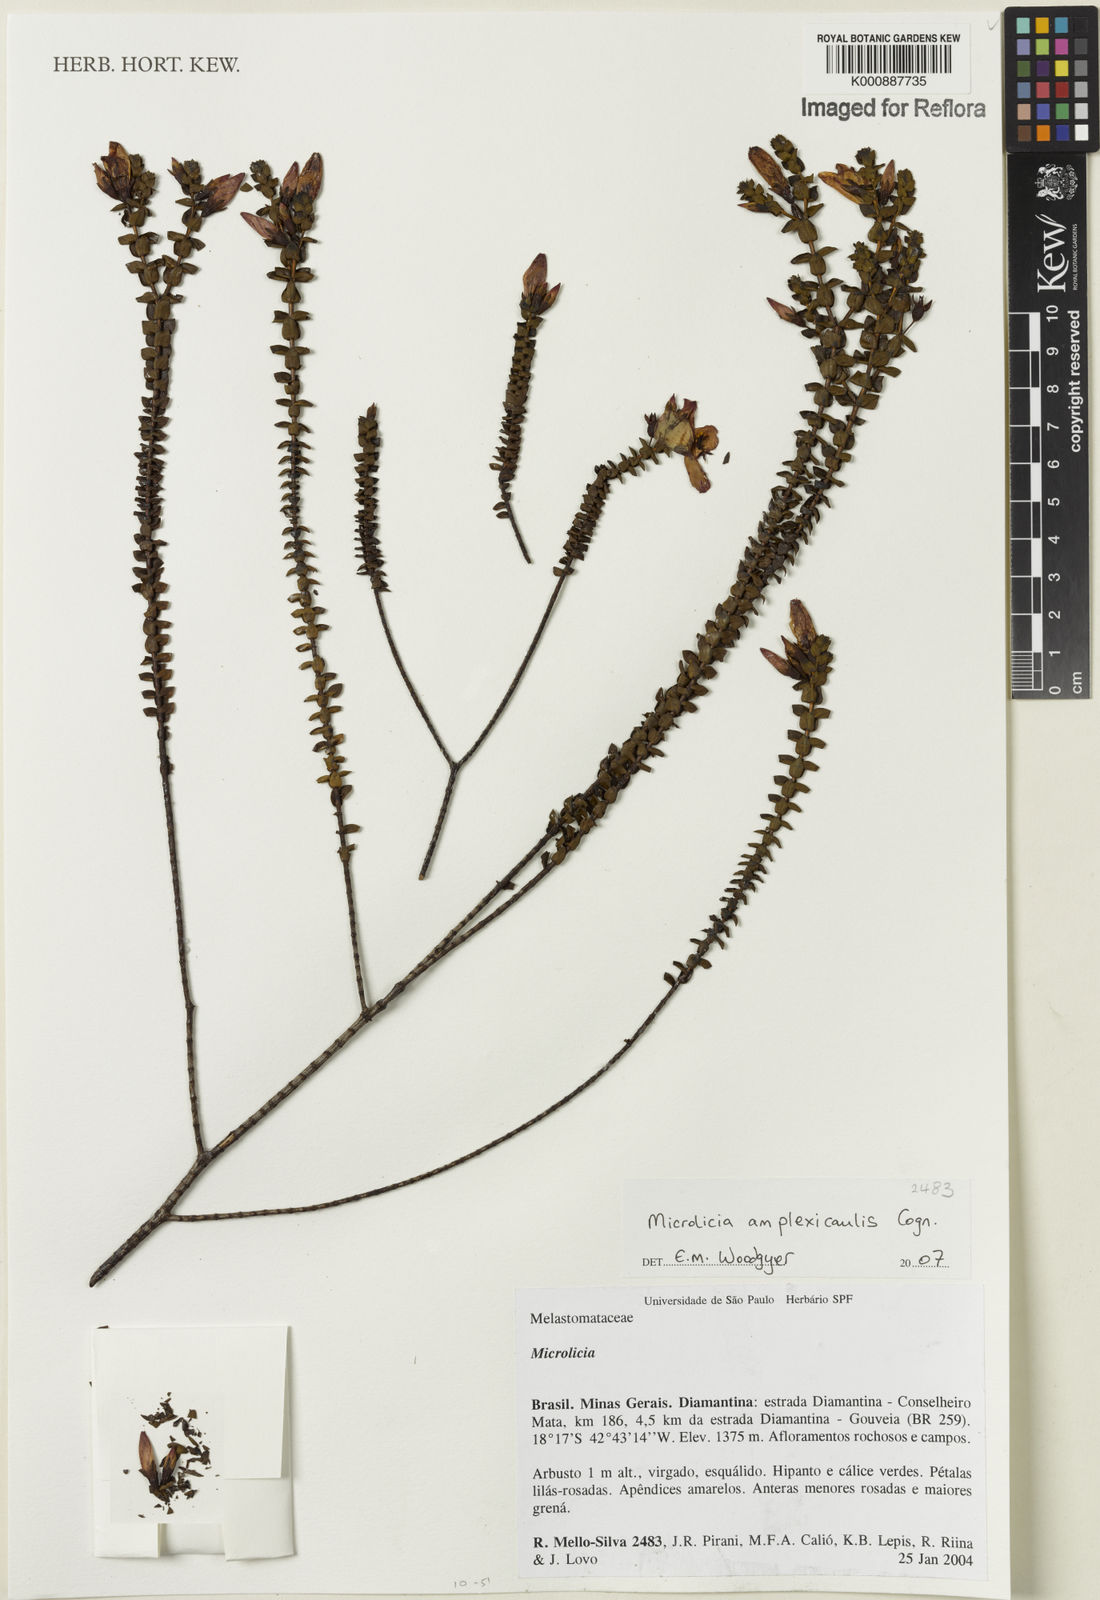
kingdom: Plantae
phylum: Tracheophyta
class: Magnoliopsida
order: Myrtales
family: Melastomataceae
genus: Microlicia
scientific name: Microlicia amplexicaulis
